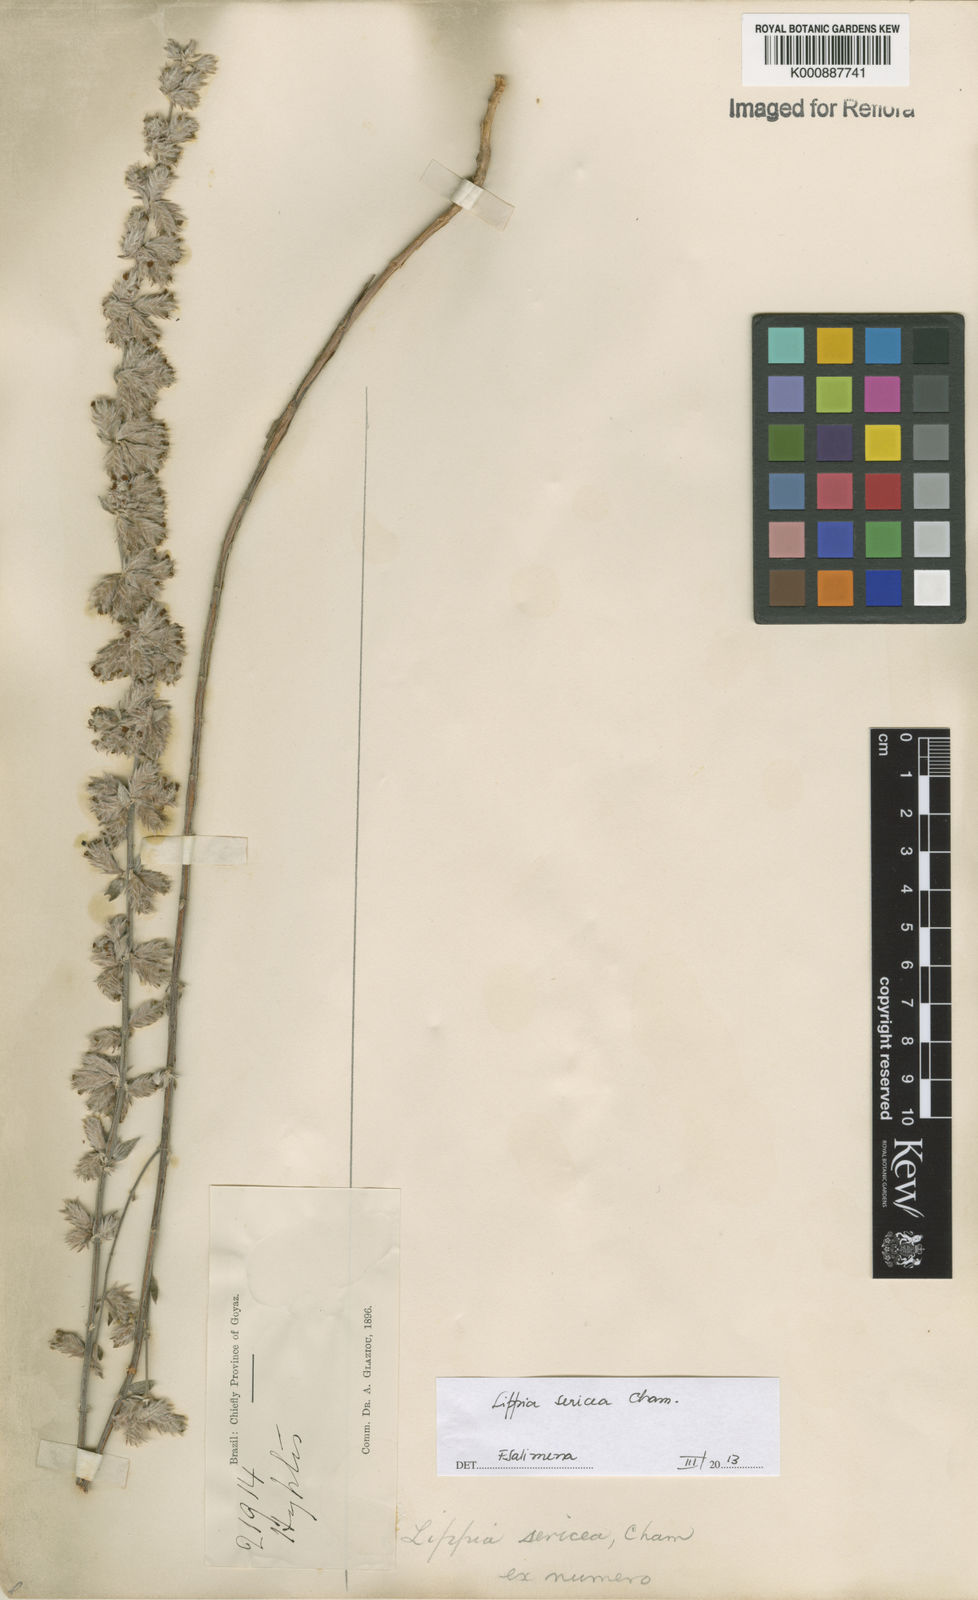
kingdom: Plantae
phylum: Tracheophyta
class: Magnoliopsida
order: Lamiales
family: Verbenaceae
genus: Lippia
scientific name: Lippia sericea
